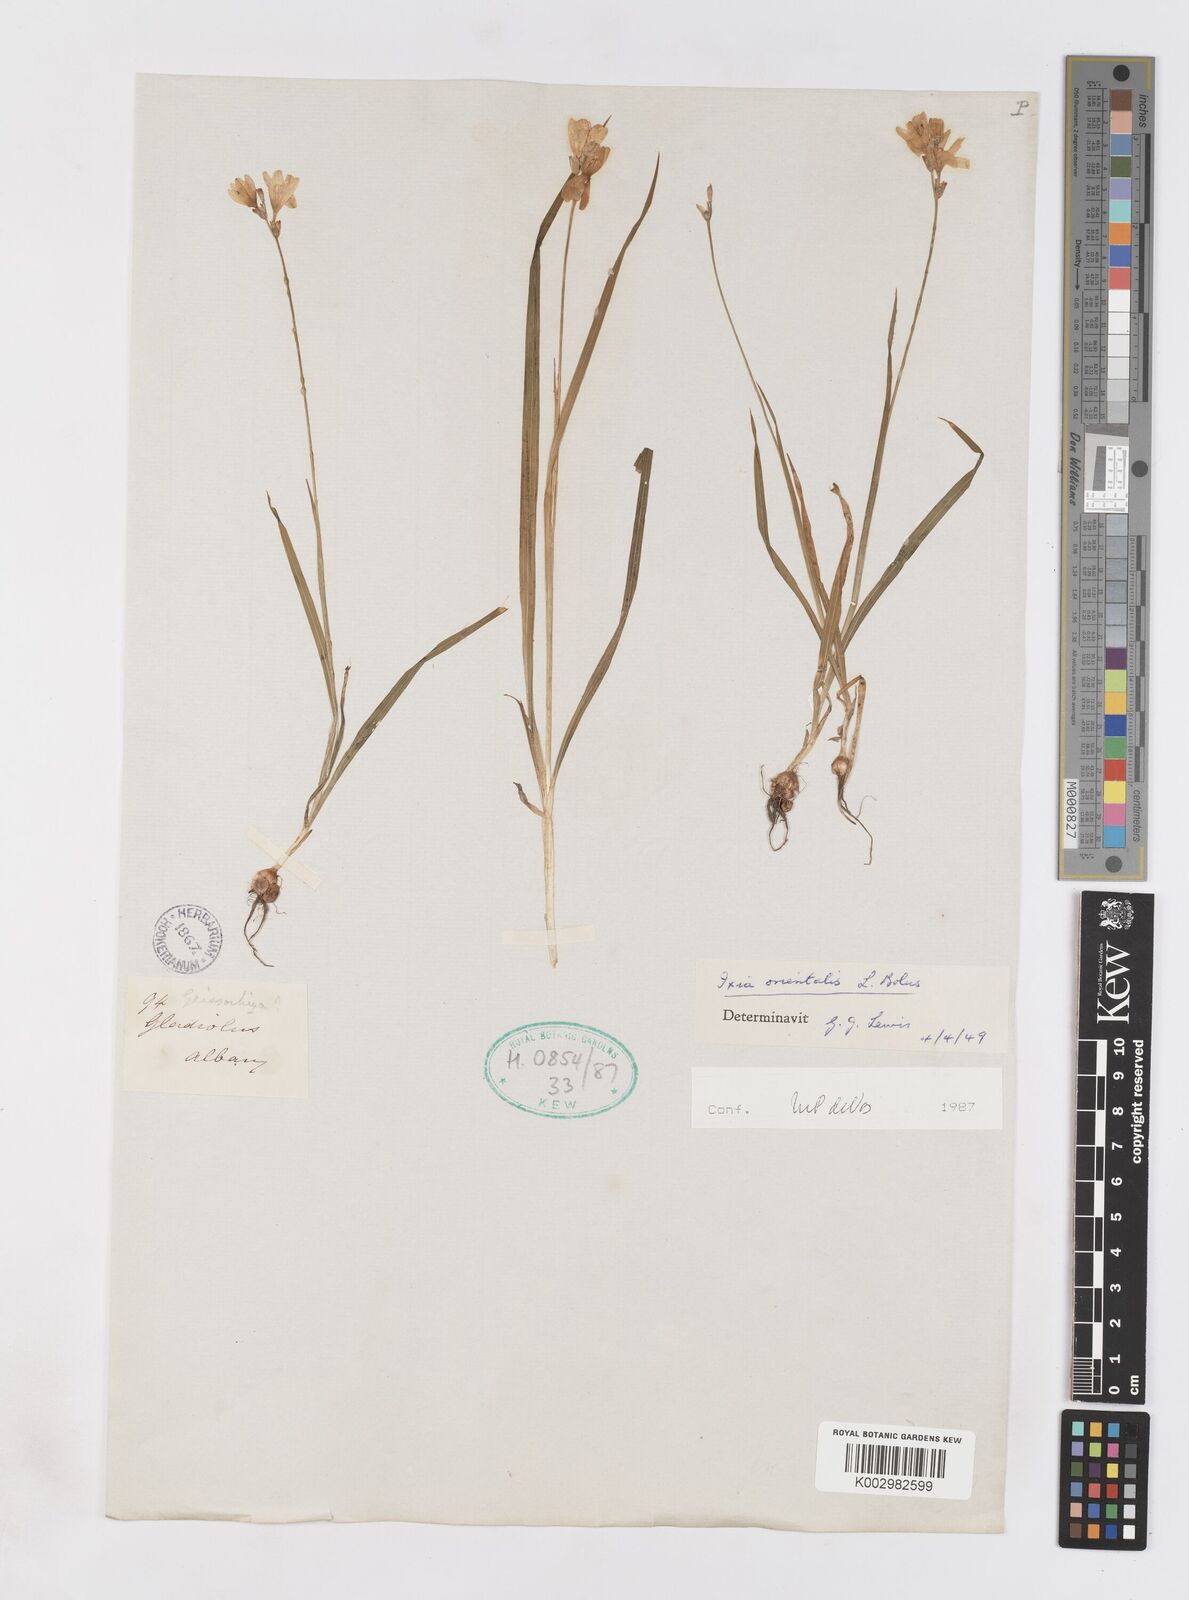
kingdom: Plantae
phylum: Tracheophyta
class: Liliopsida
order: Asparagales
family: Iridaceae
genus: Ixia
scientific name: Ixia orientalis
